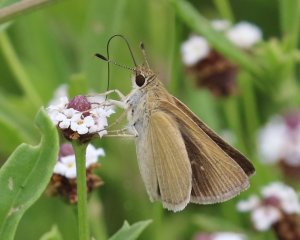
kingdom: Animalia
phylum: Arthropoda
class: Insecta
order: Lepidoptera
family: Hesperiidae
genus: Nastra
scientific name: Nastra julia
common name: Julia's Skipper
